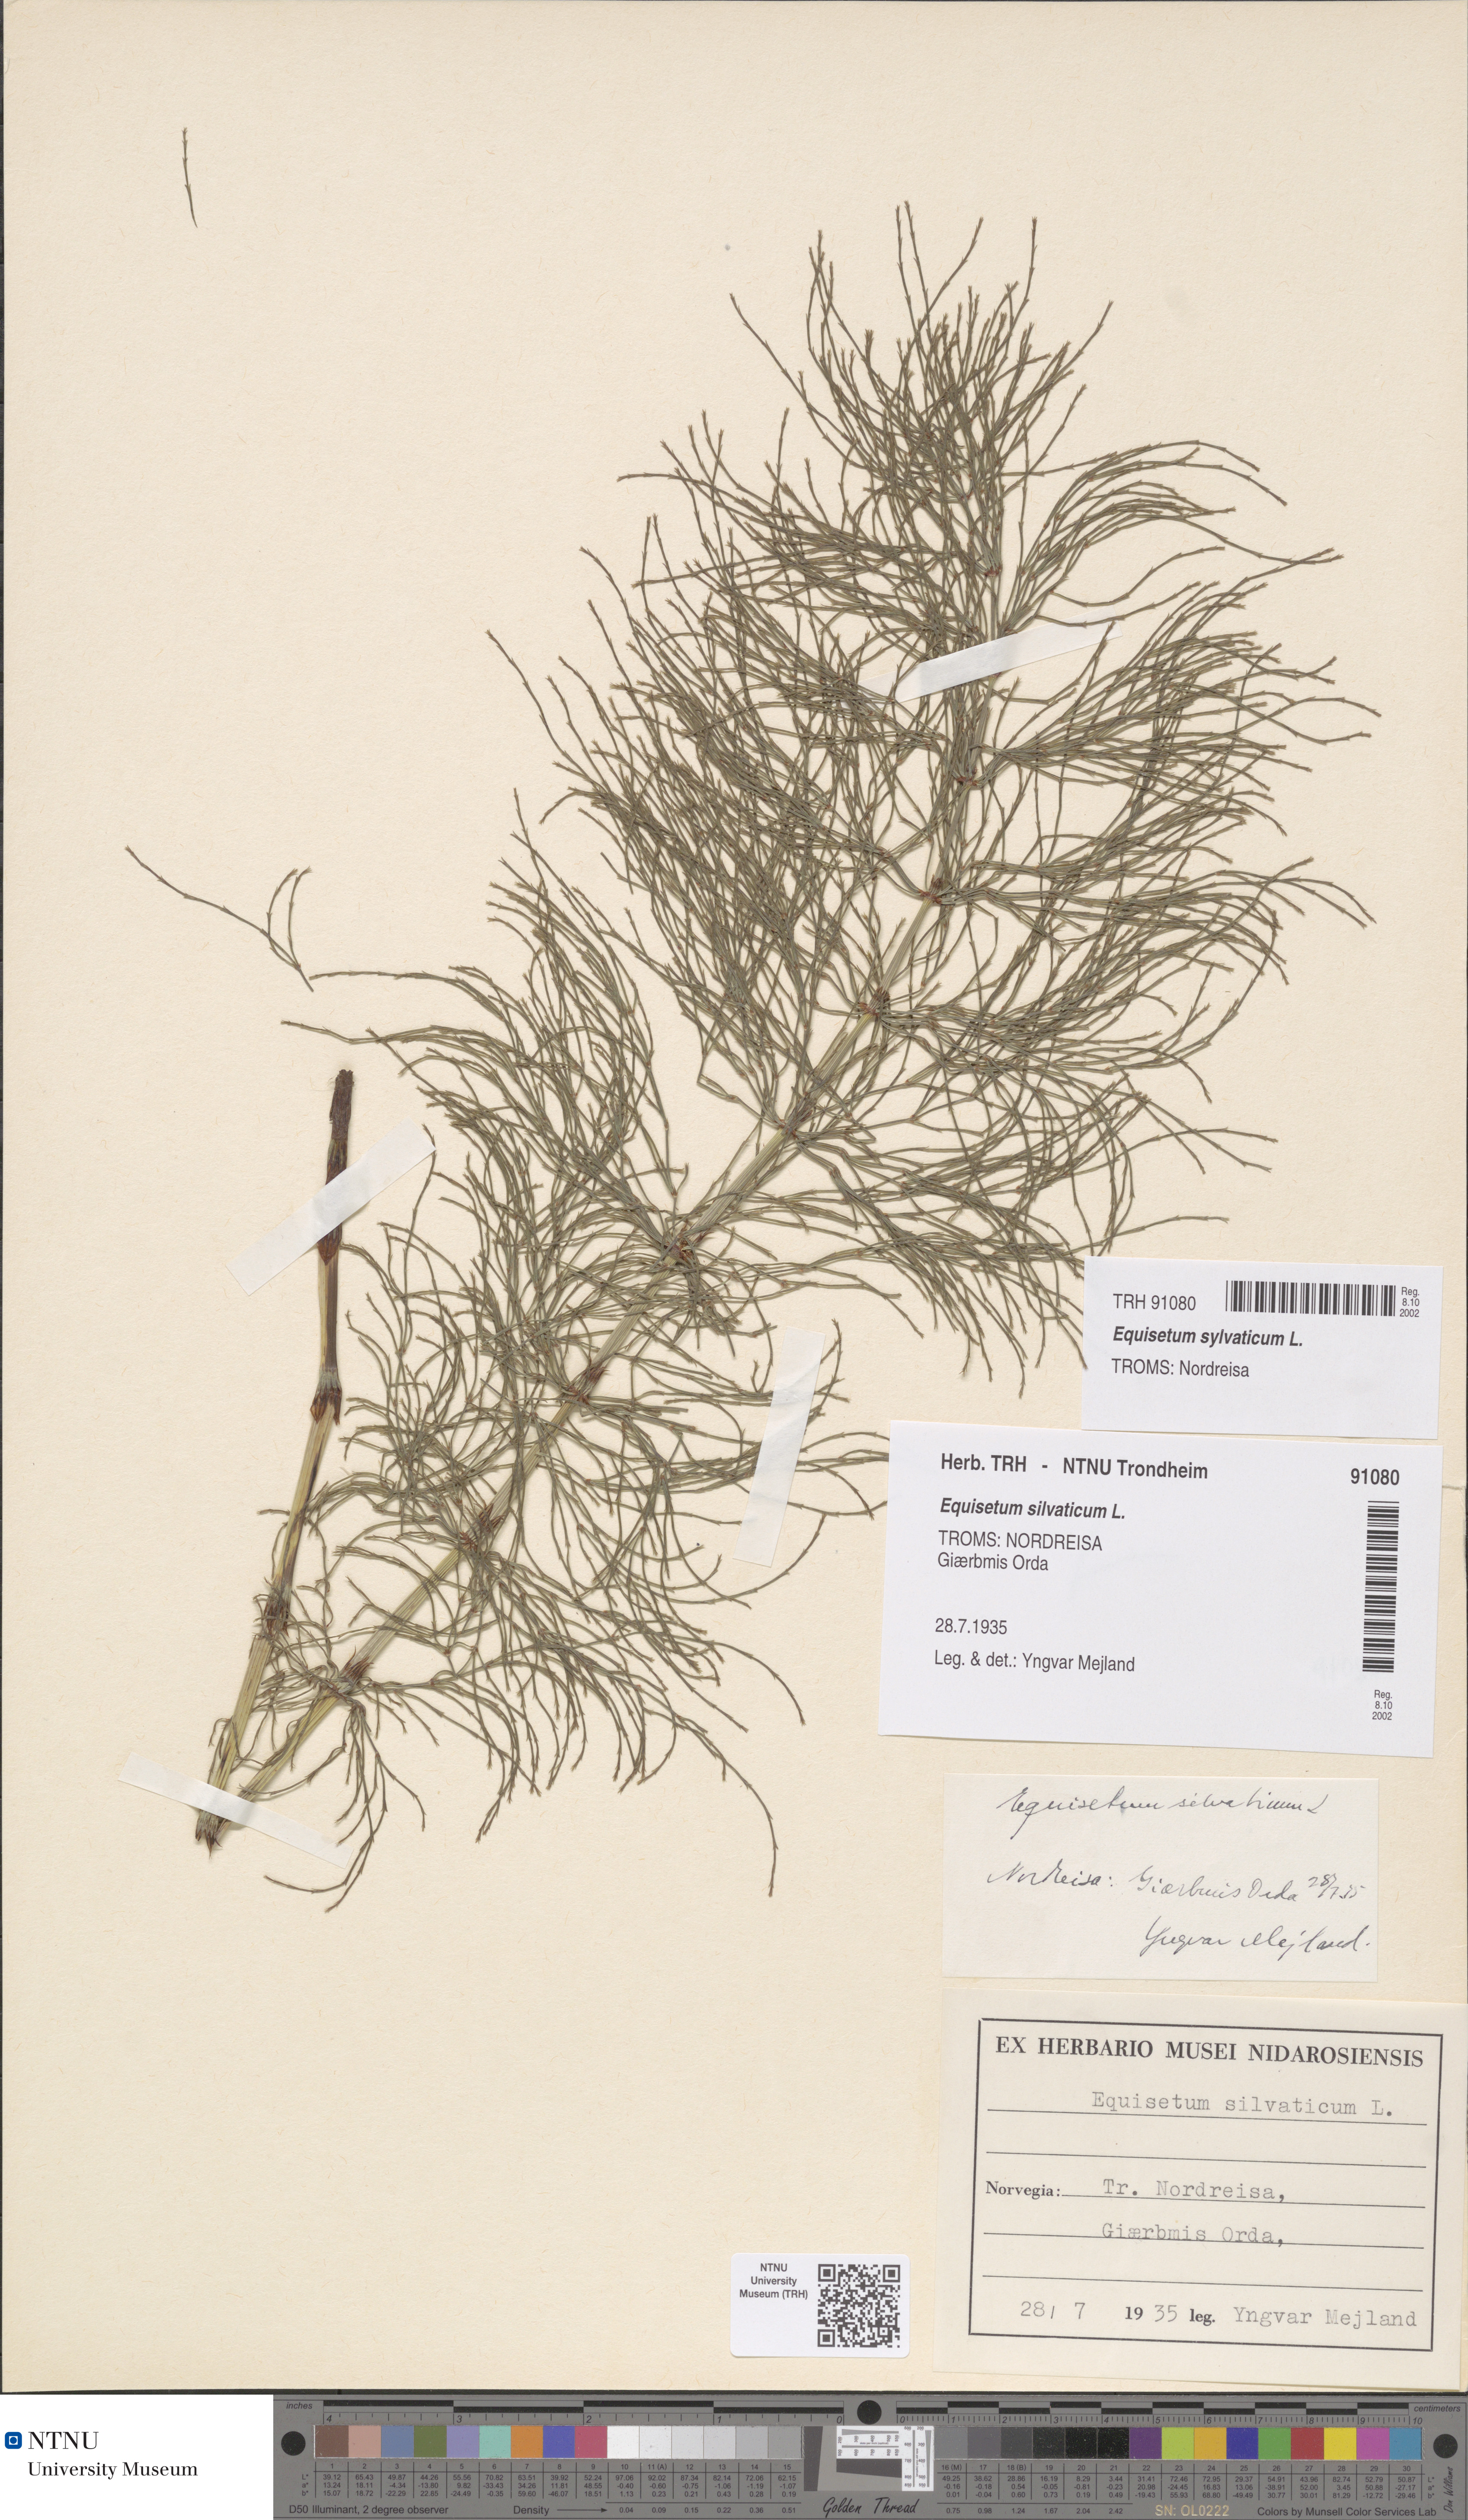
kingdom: Plantae
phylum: Tracheophyta
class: Polypodiopsida
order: Equisetales
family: Equisetaceae
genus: Equisetum
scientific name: Equisetum sylvaticum
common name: Wood horsetail
